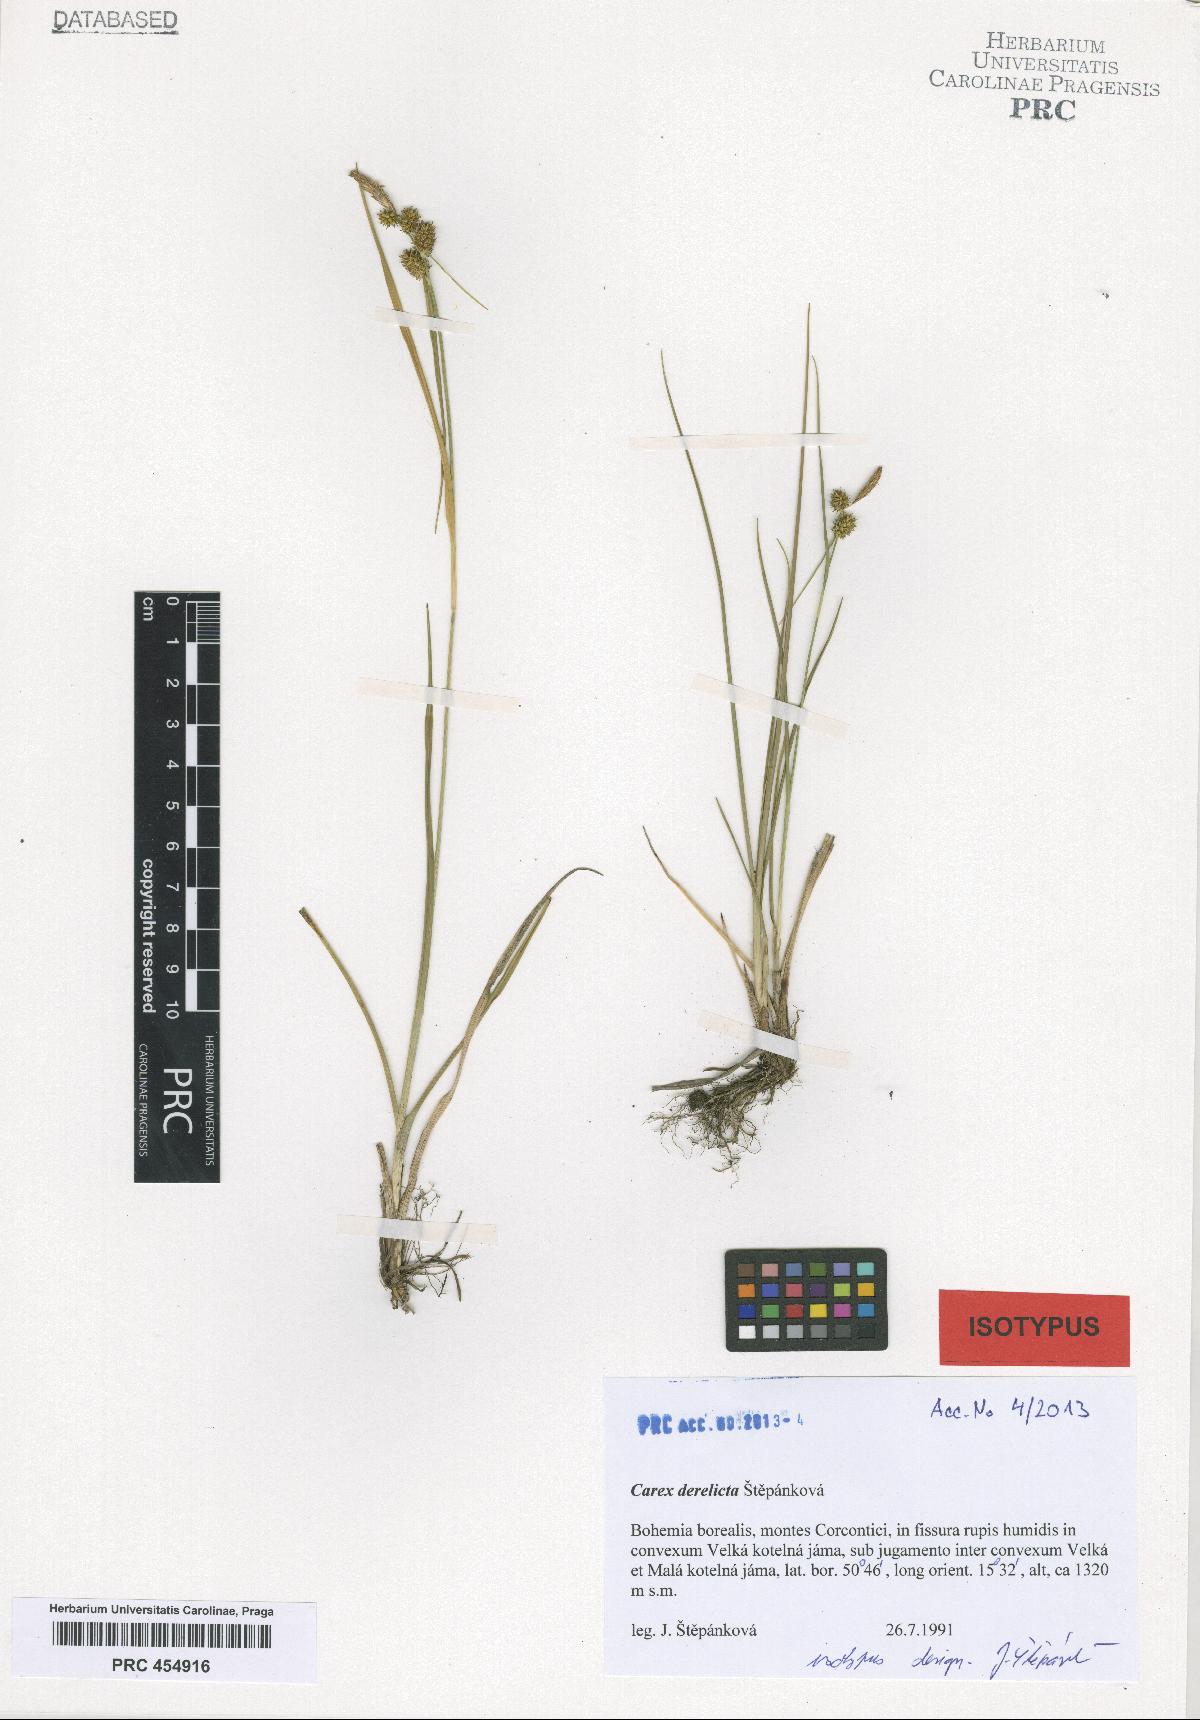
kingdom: Plantae
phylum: Tracheophyta
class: Liliopsida
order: Poales
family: Cyperaceae
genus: Carex
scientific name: Carex derelicta
